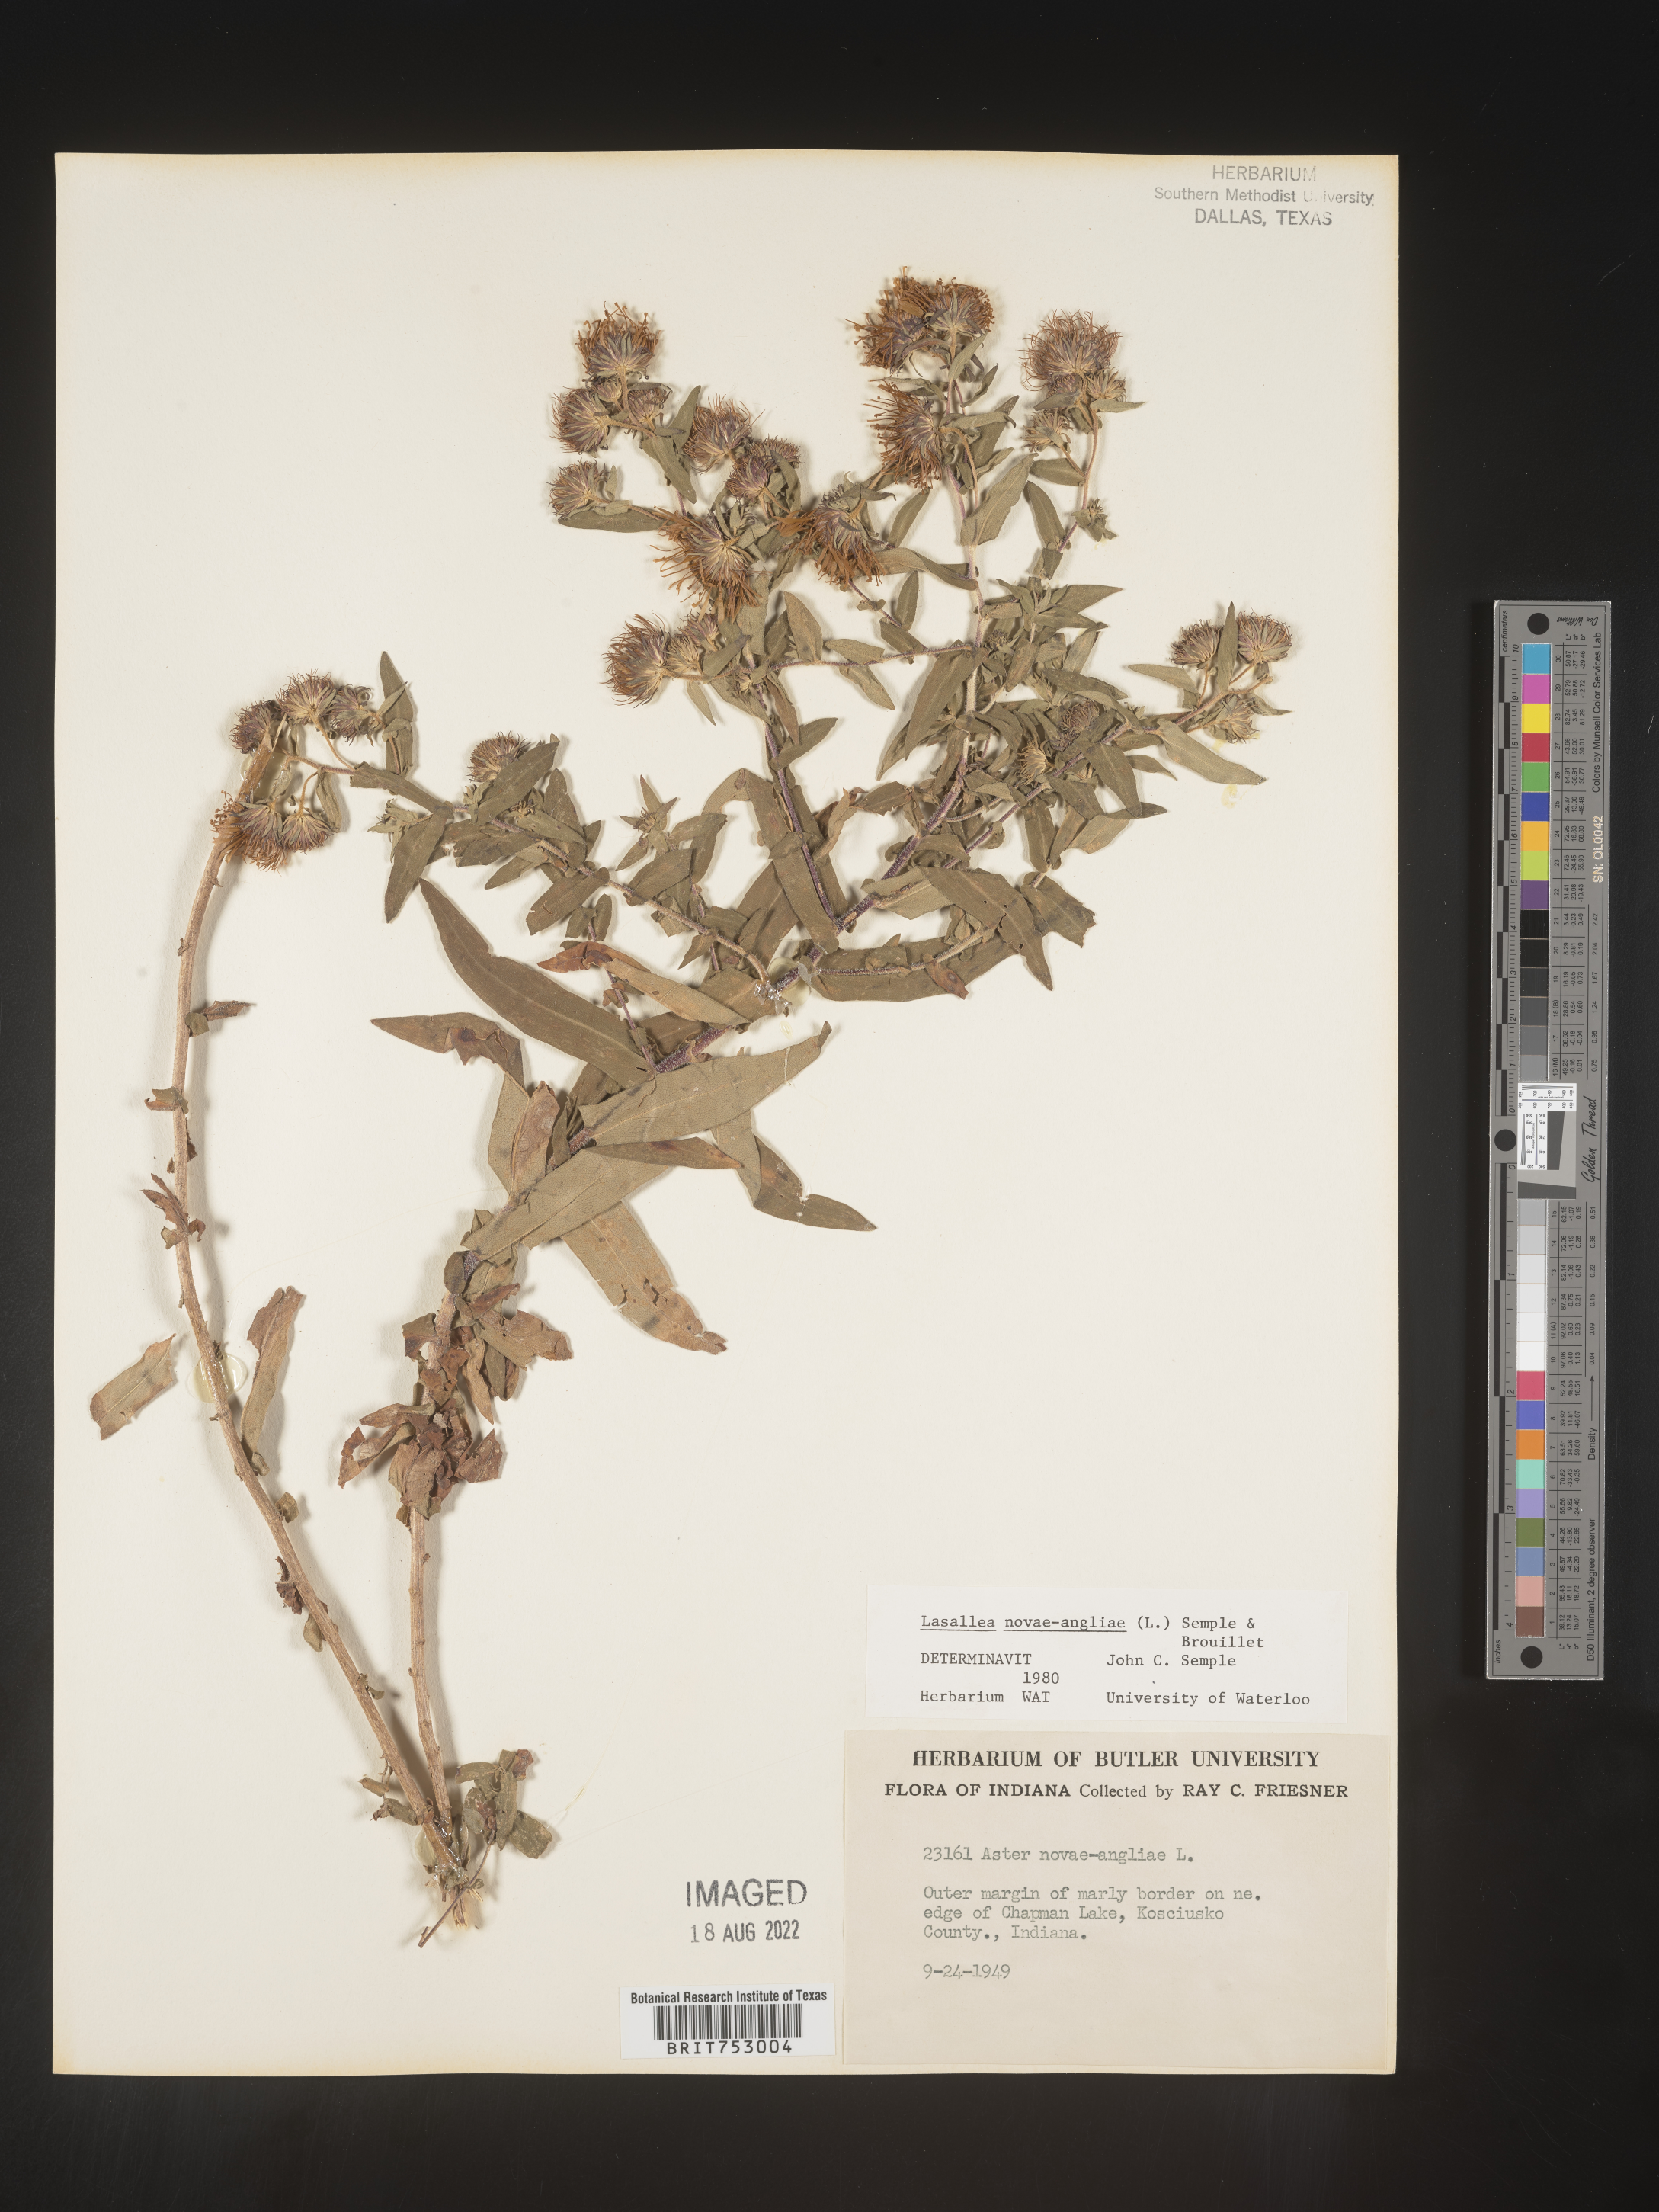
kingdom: Plantae
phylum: Tracheophyta
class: Magnoliopsida
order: Asterales
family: Asteraceae
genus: Symphyotrichum
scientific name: Symphyotrichum novae-angliae
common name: Michaelmas daisy
